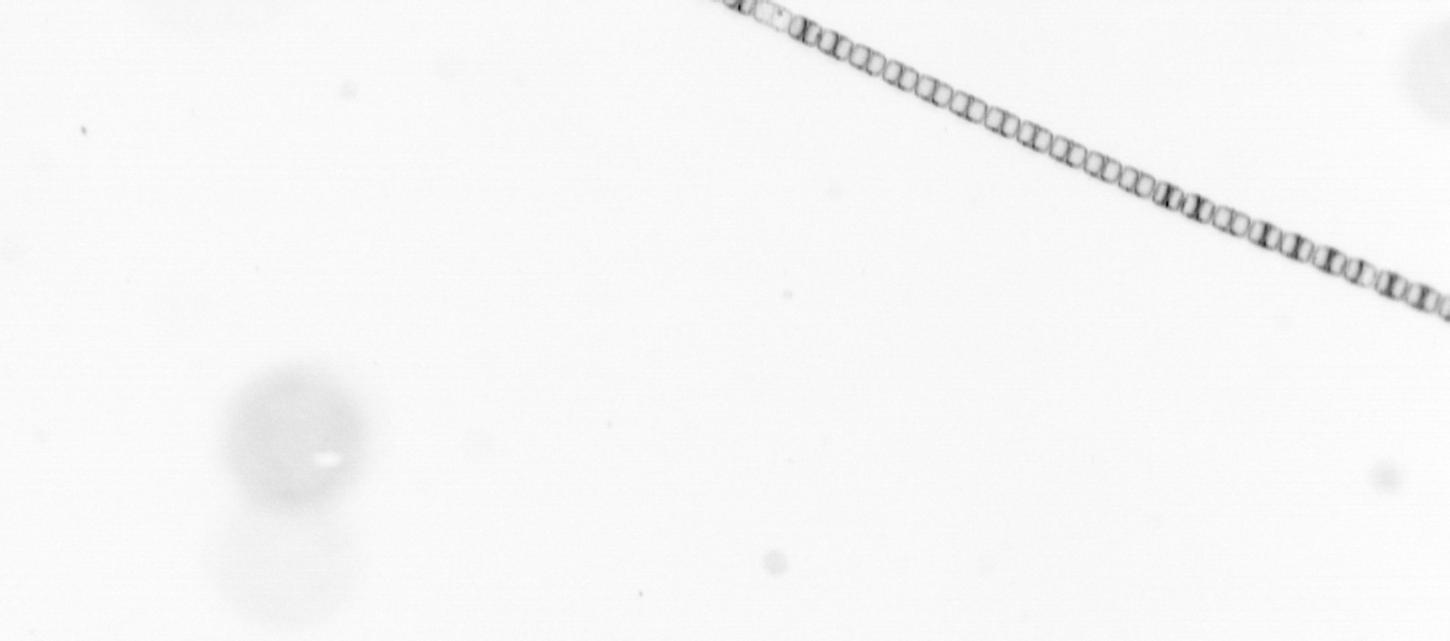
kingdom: Chromista
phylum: Ochrophyta
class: Bacillariophyceae
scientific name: Bacillariophyceae
